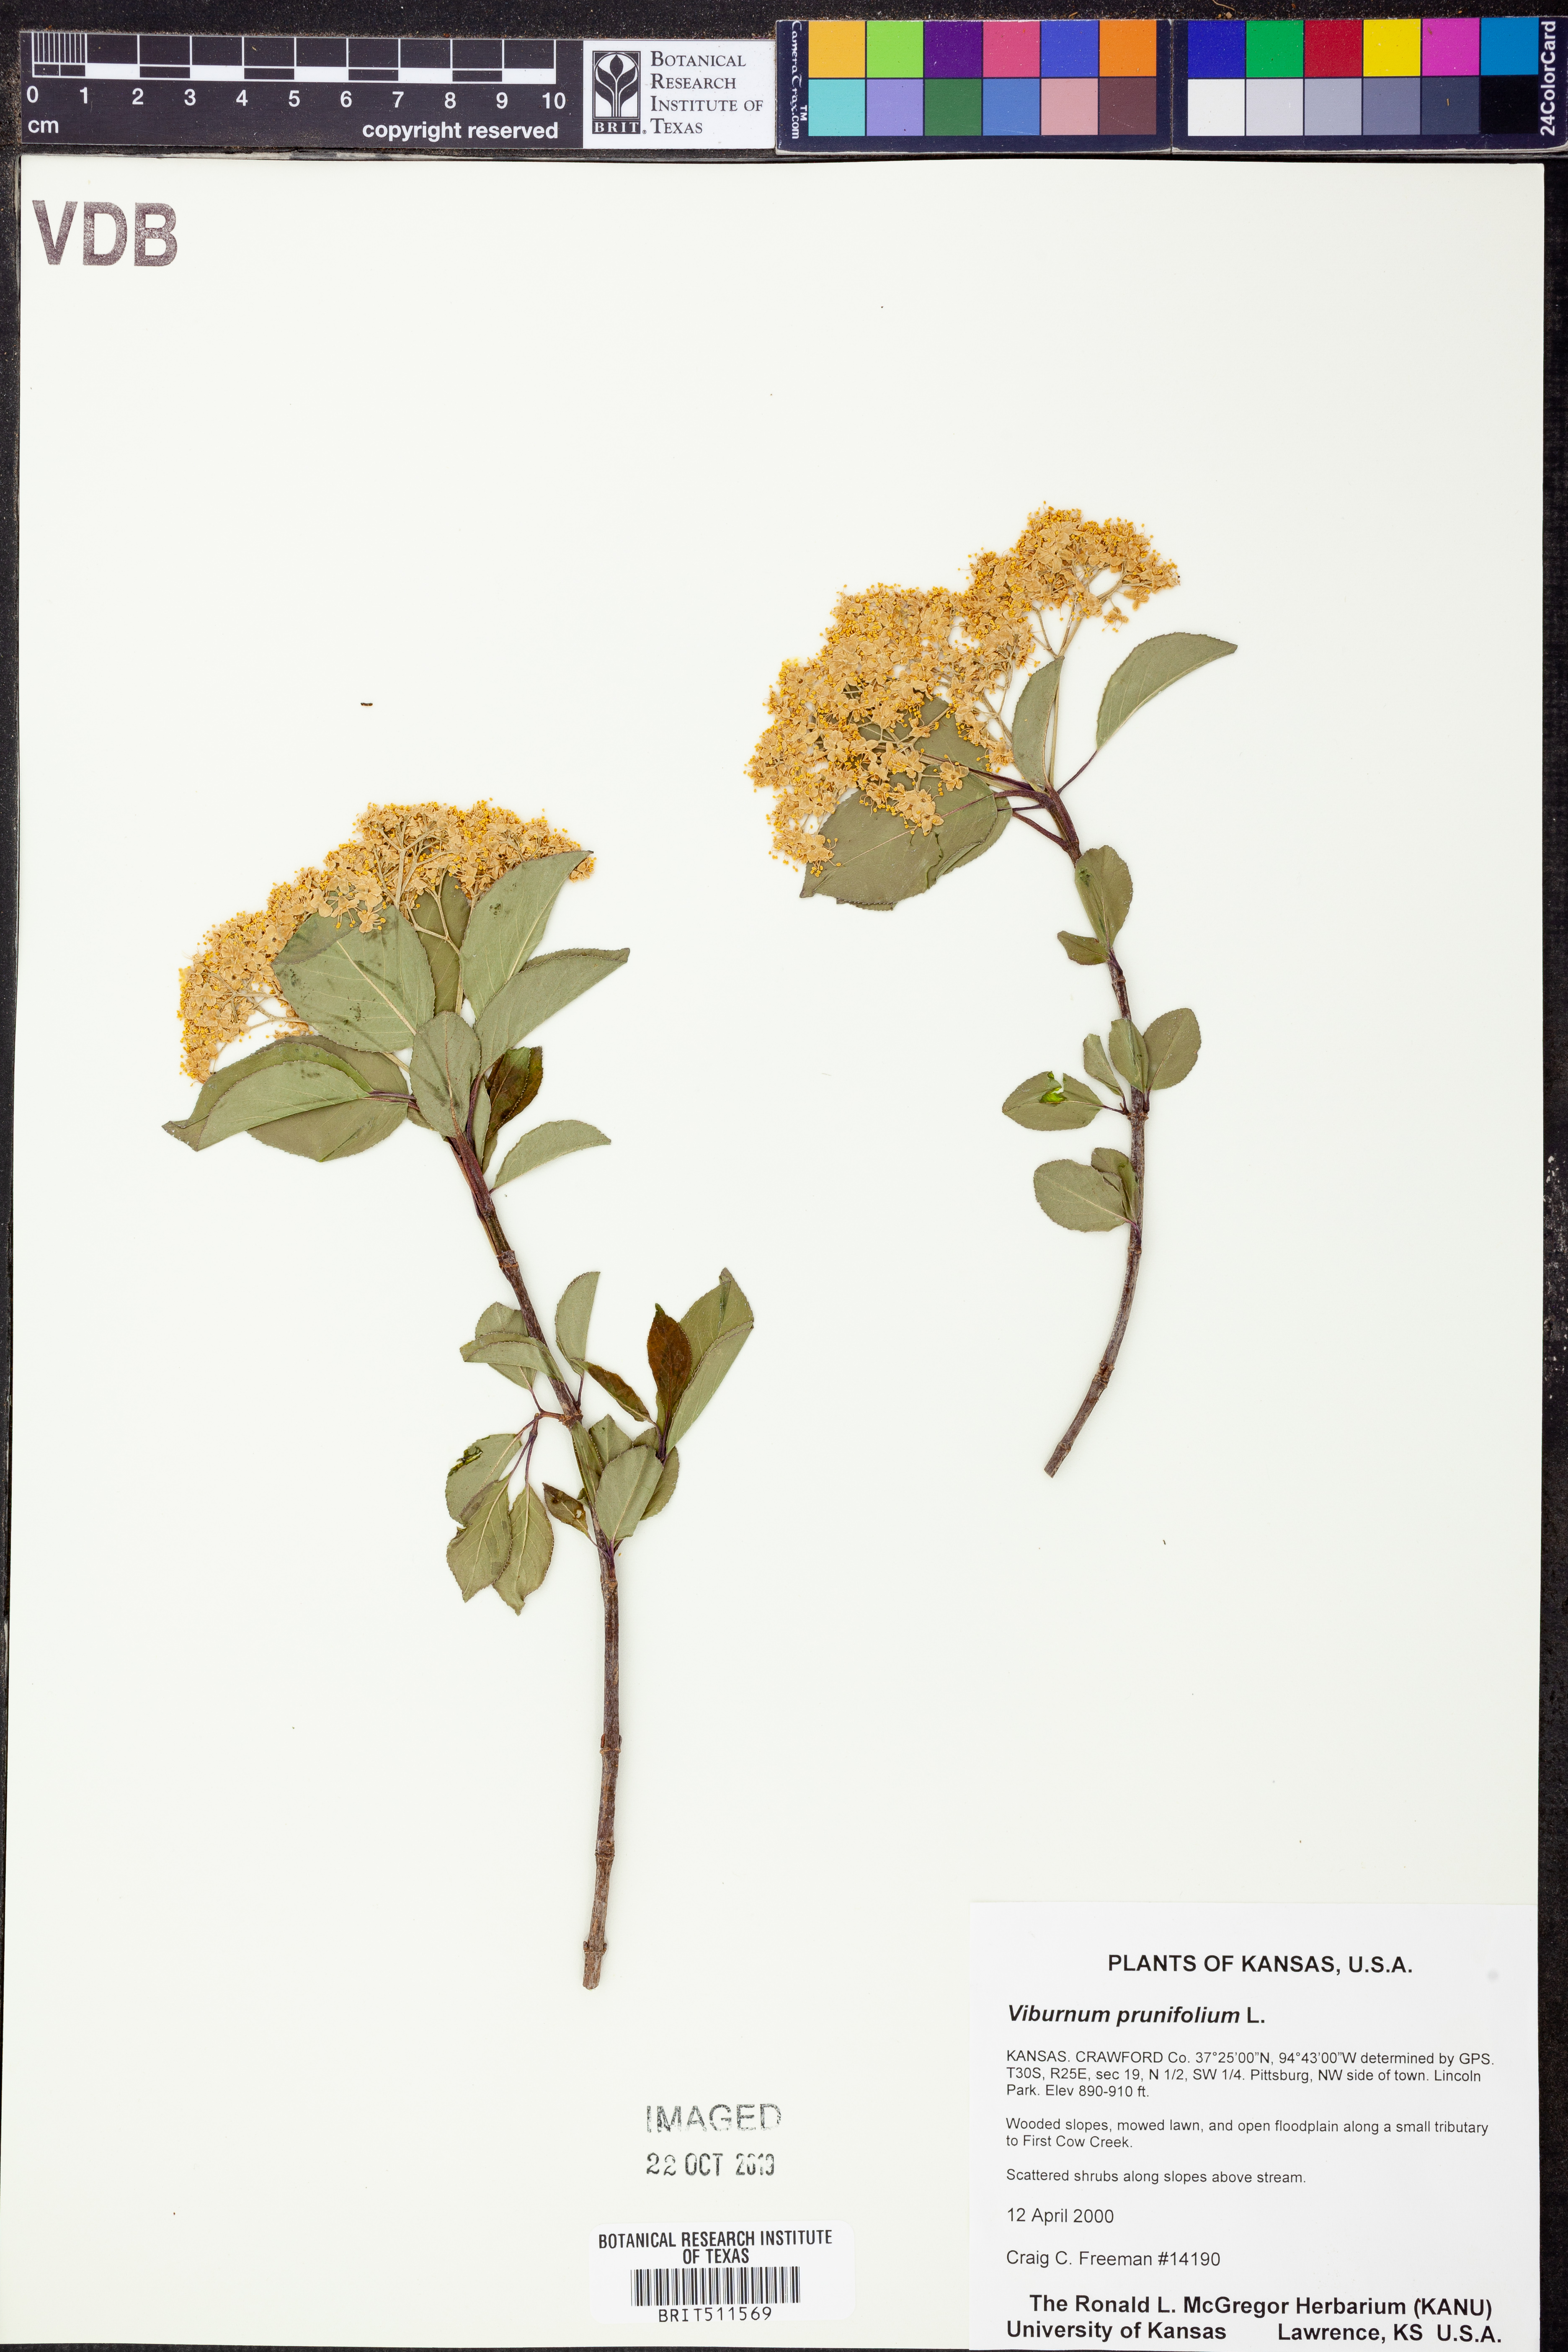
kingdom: Plantae
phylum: Tracheophyta
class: Magnoliopsida
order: Dipsacales
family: Viburnaceae
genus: Viburnum
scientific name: Viburnum prunifolium
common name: Black haw
